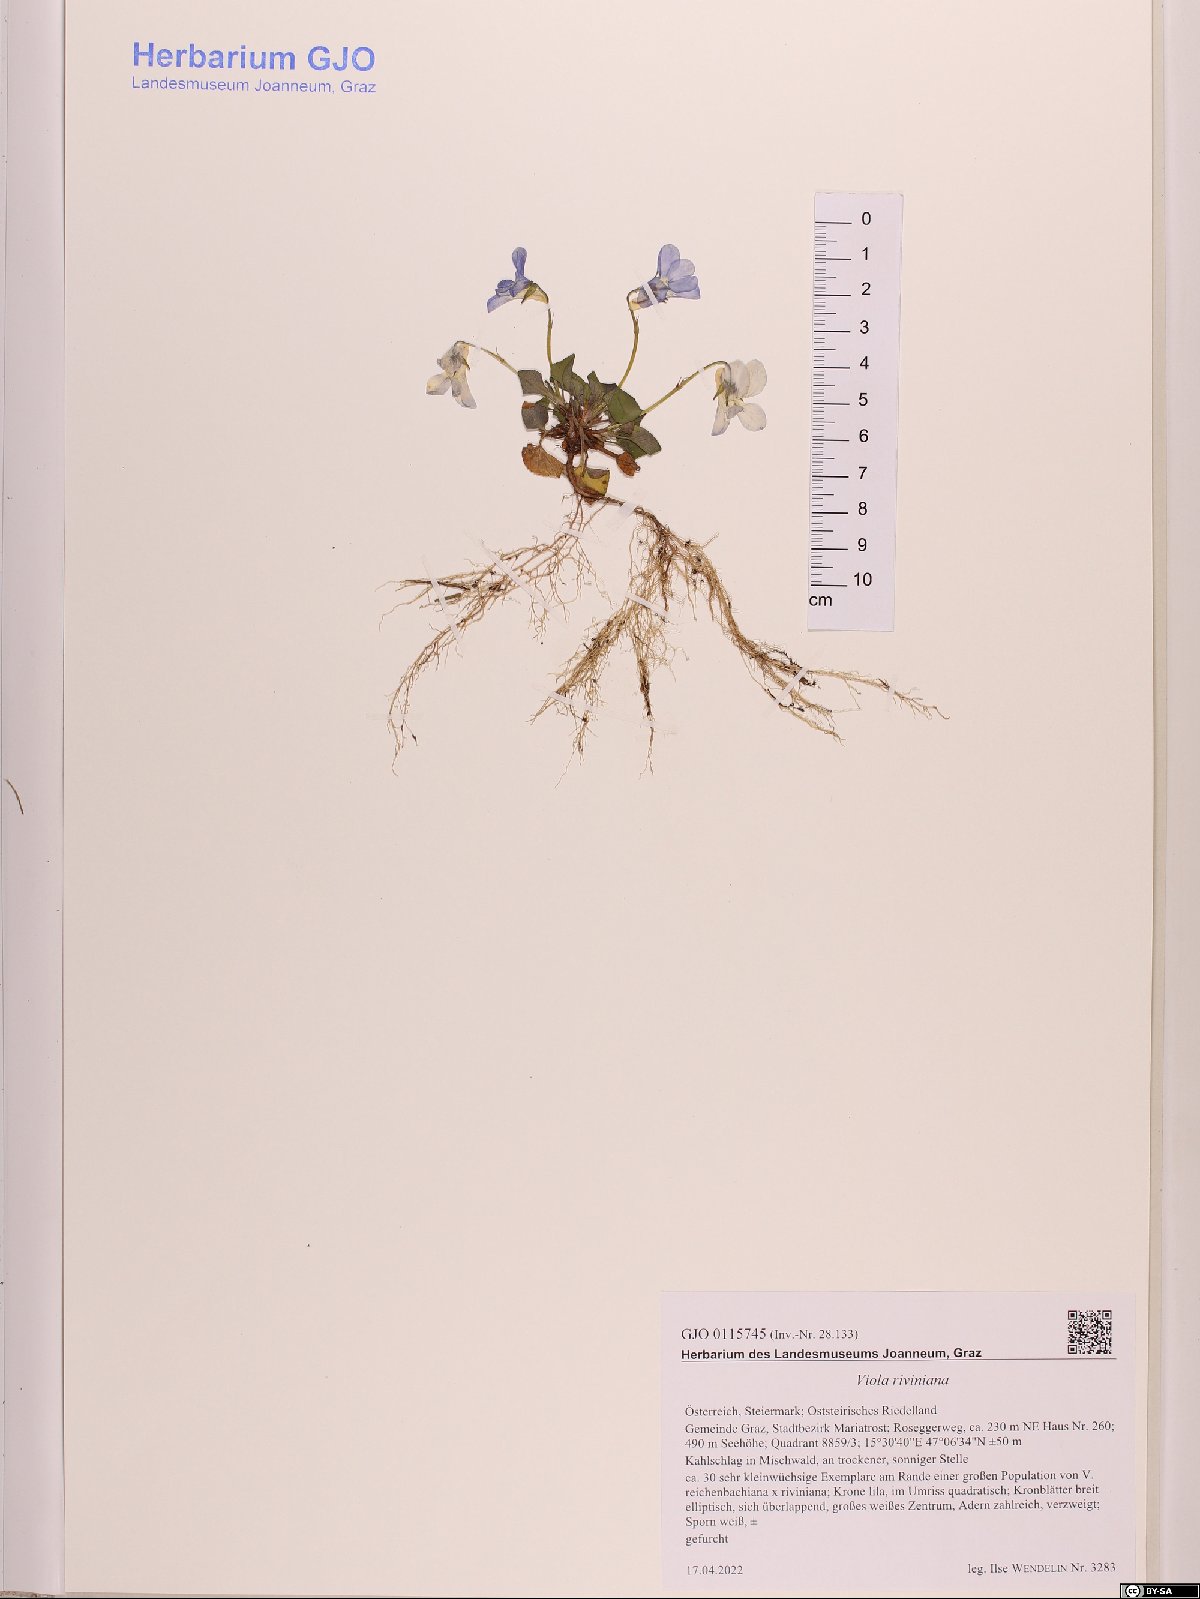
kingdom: Plantae
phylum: Tracheophyta
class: Magnoliopsida
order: Malpighiales
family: Violaceae
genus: Viola
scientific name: Viola riviniana
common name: Common dog-violet
